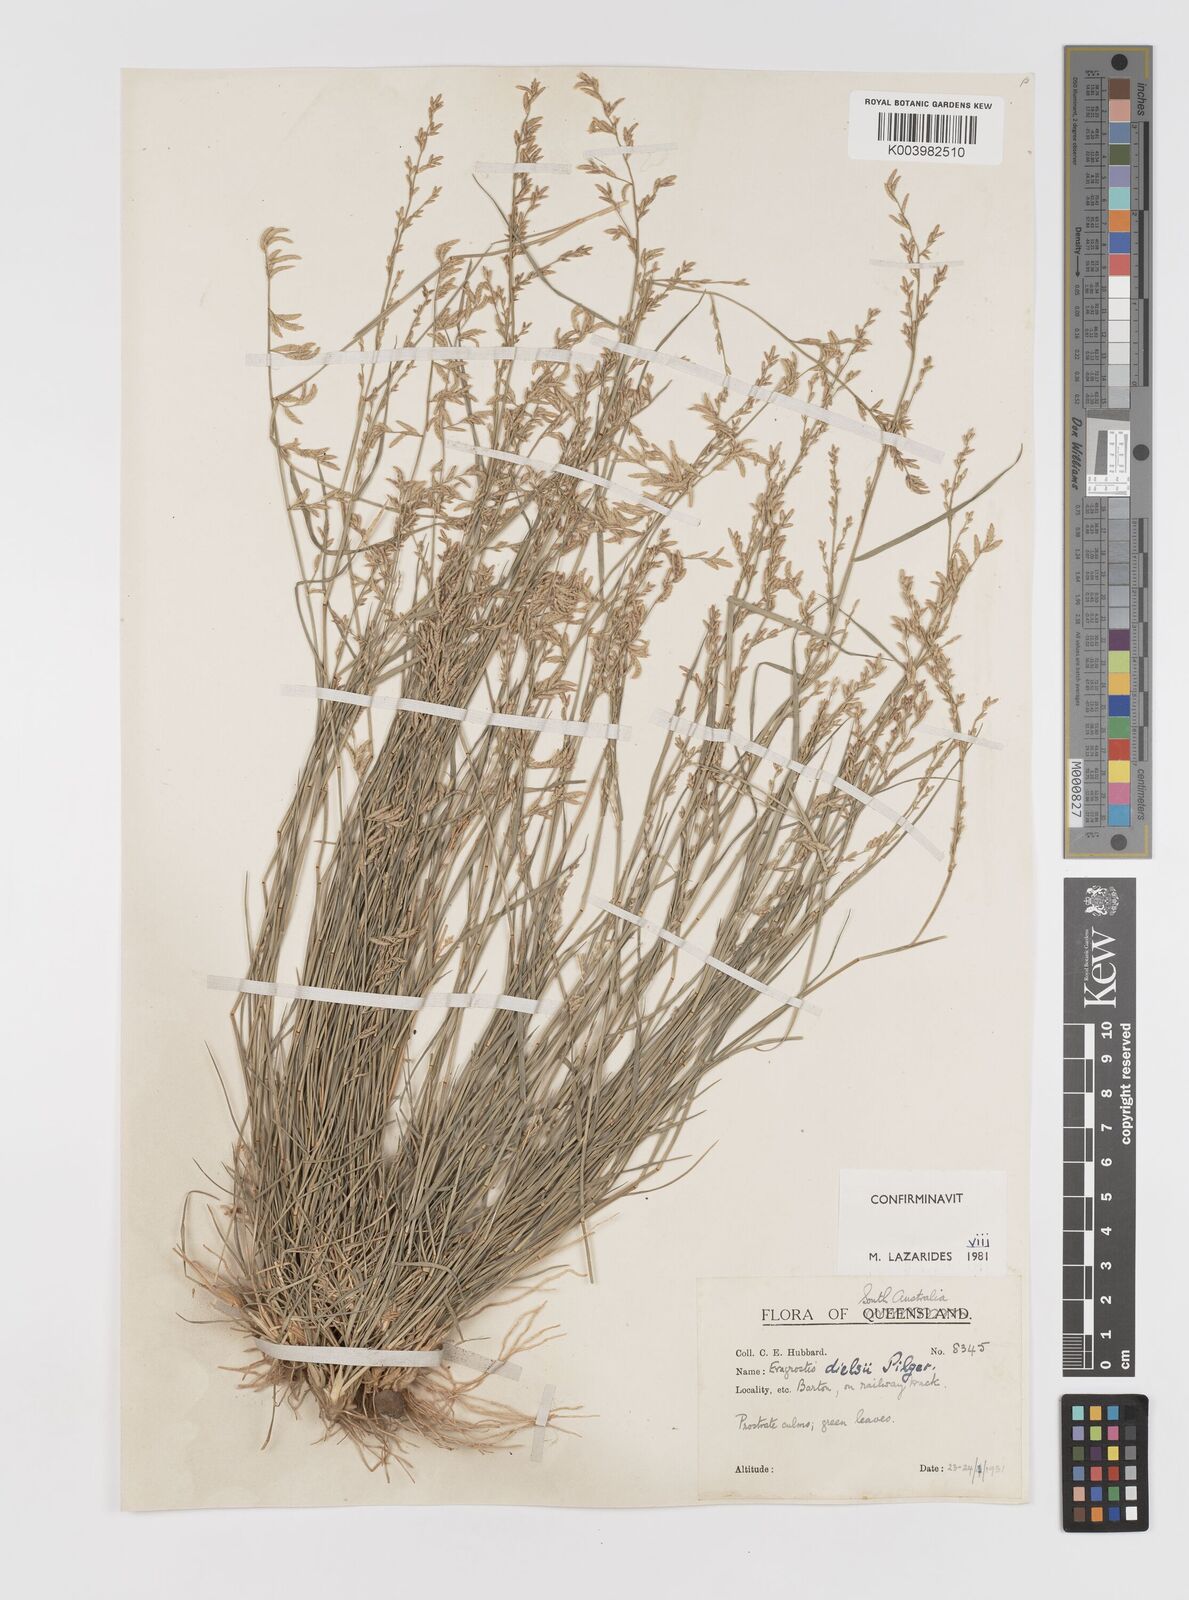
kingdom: Plantae
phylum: Tracheophyta
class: Liliopsida
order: Poales
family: Poaceae
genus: Eragrostis
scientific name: Eragrostis dielsii
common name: Lovegrass
